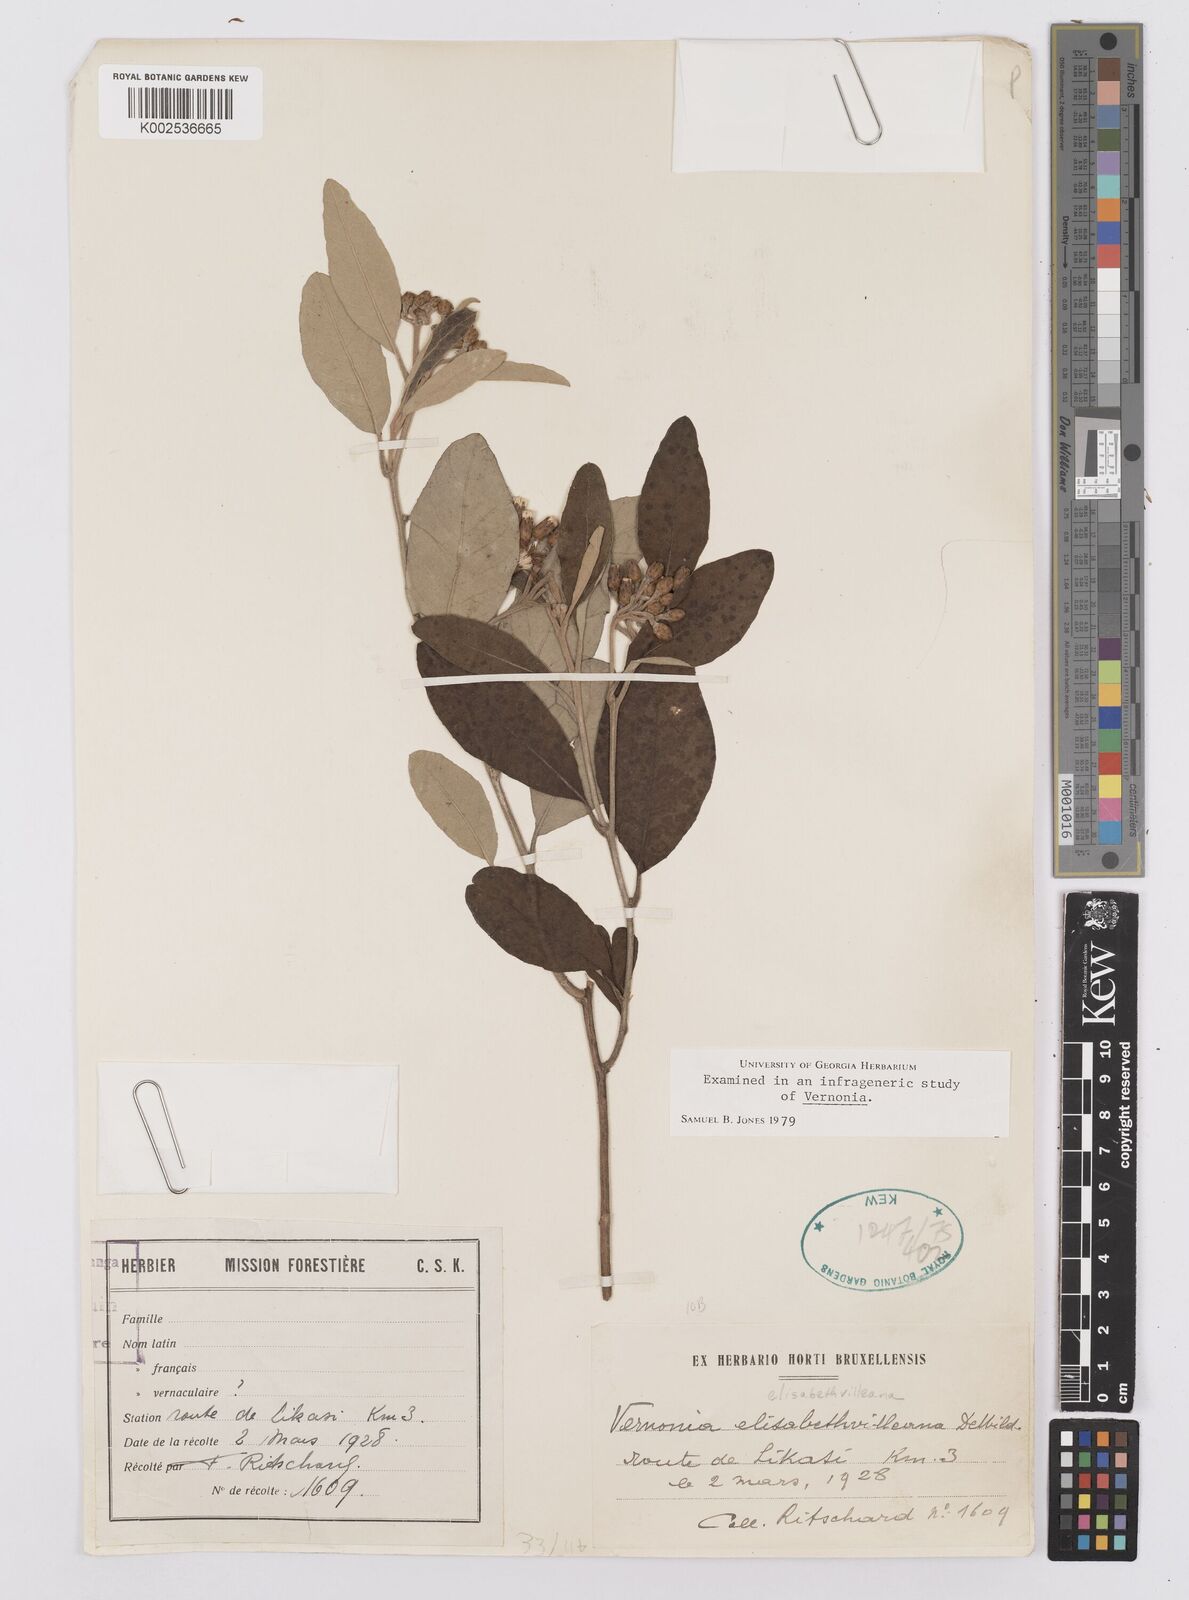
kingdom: Plantae
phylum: Tracheophyta
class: Magnoliopsida
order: Asterales
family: Asteraceae
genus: Gymnanthemum
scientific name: Gymnanthemum bellinghamii
